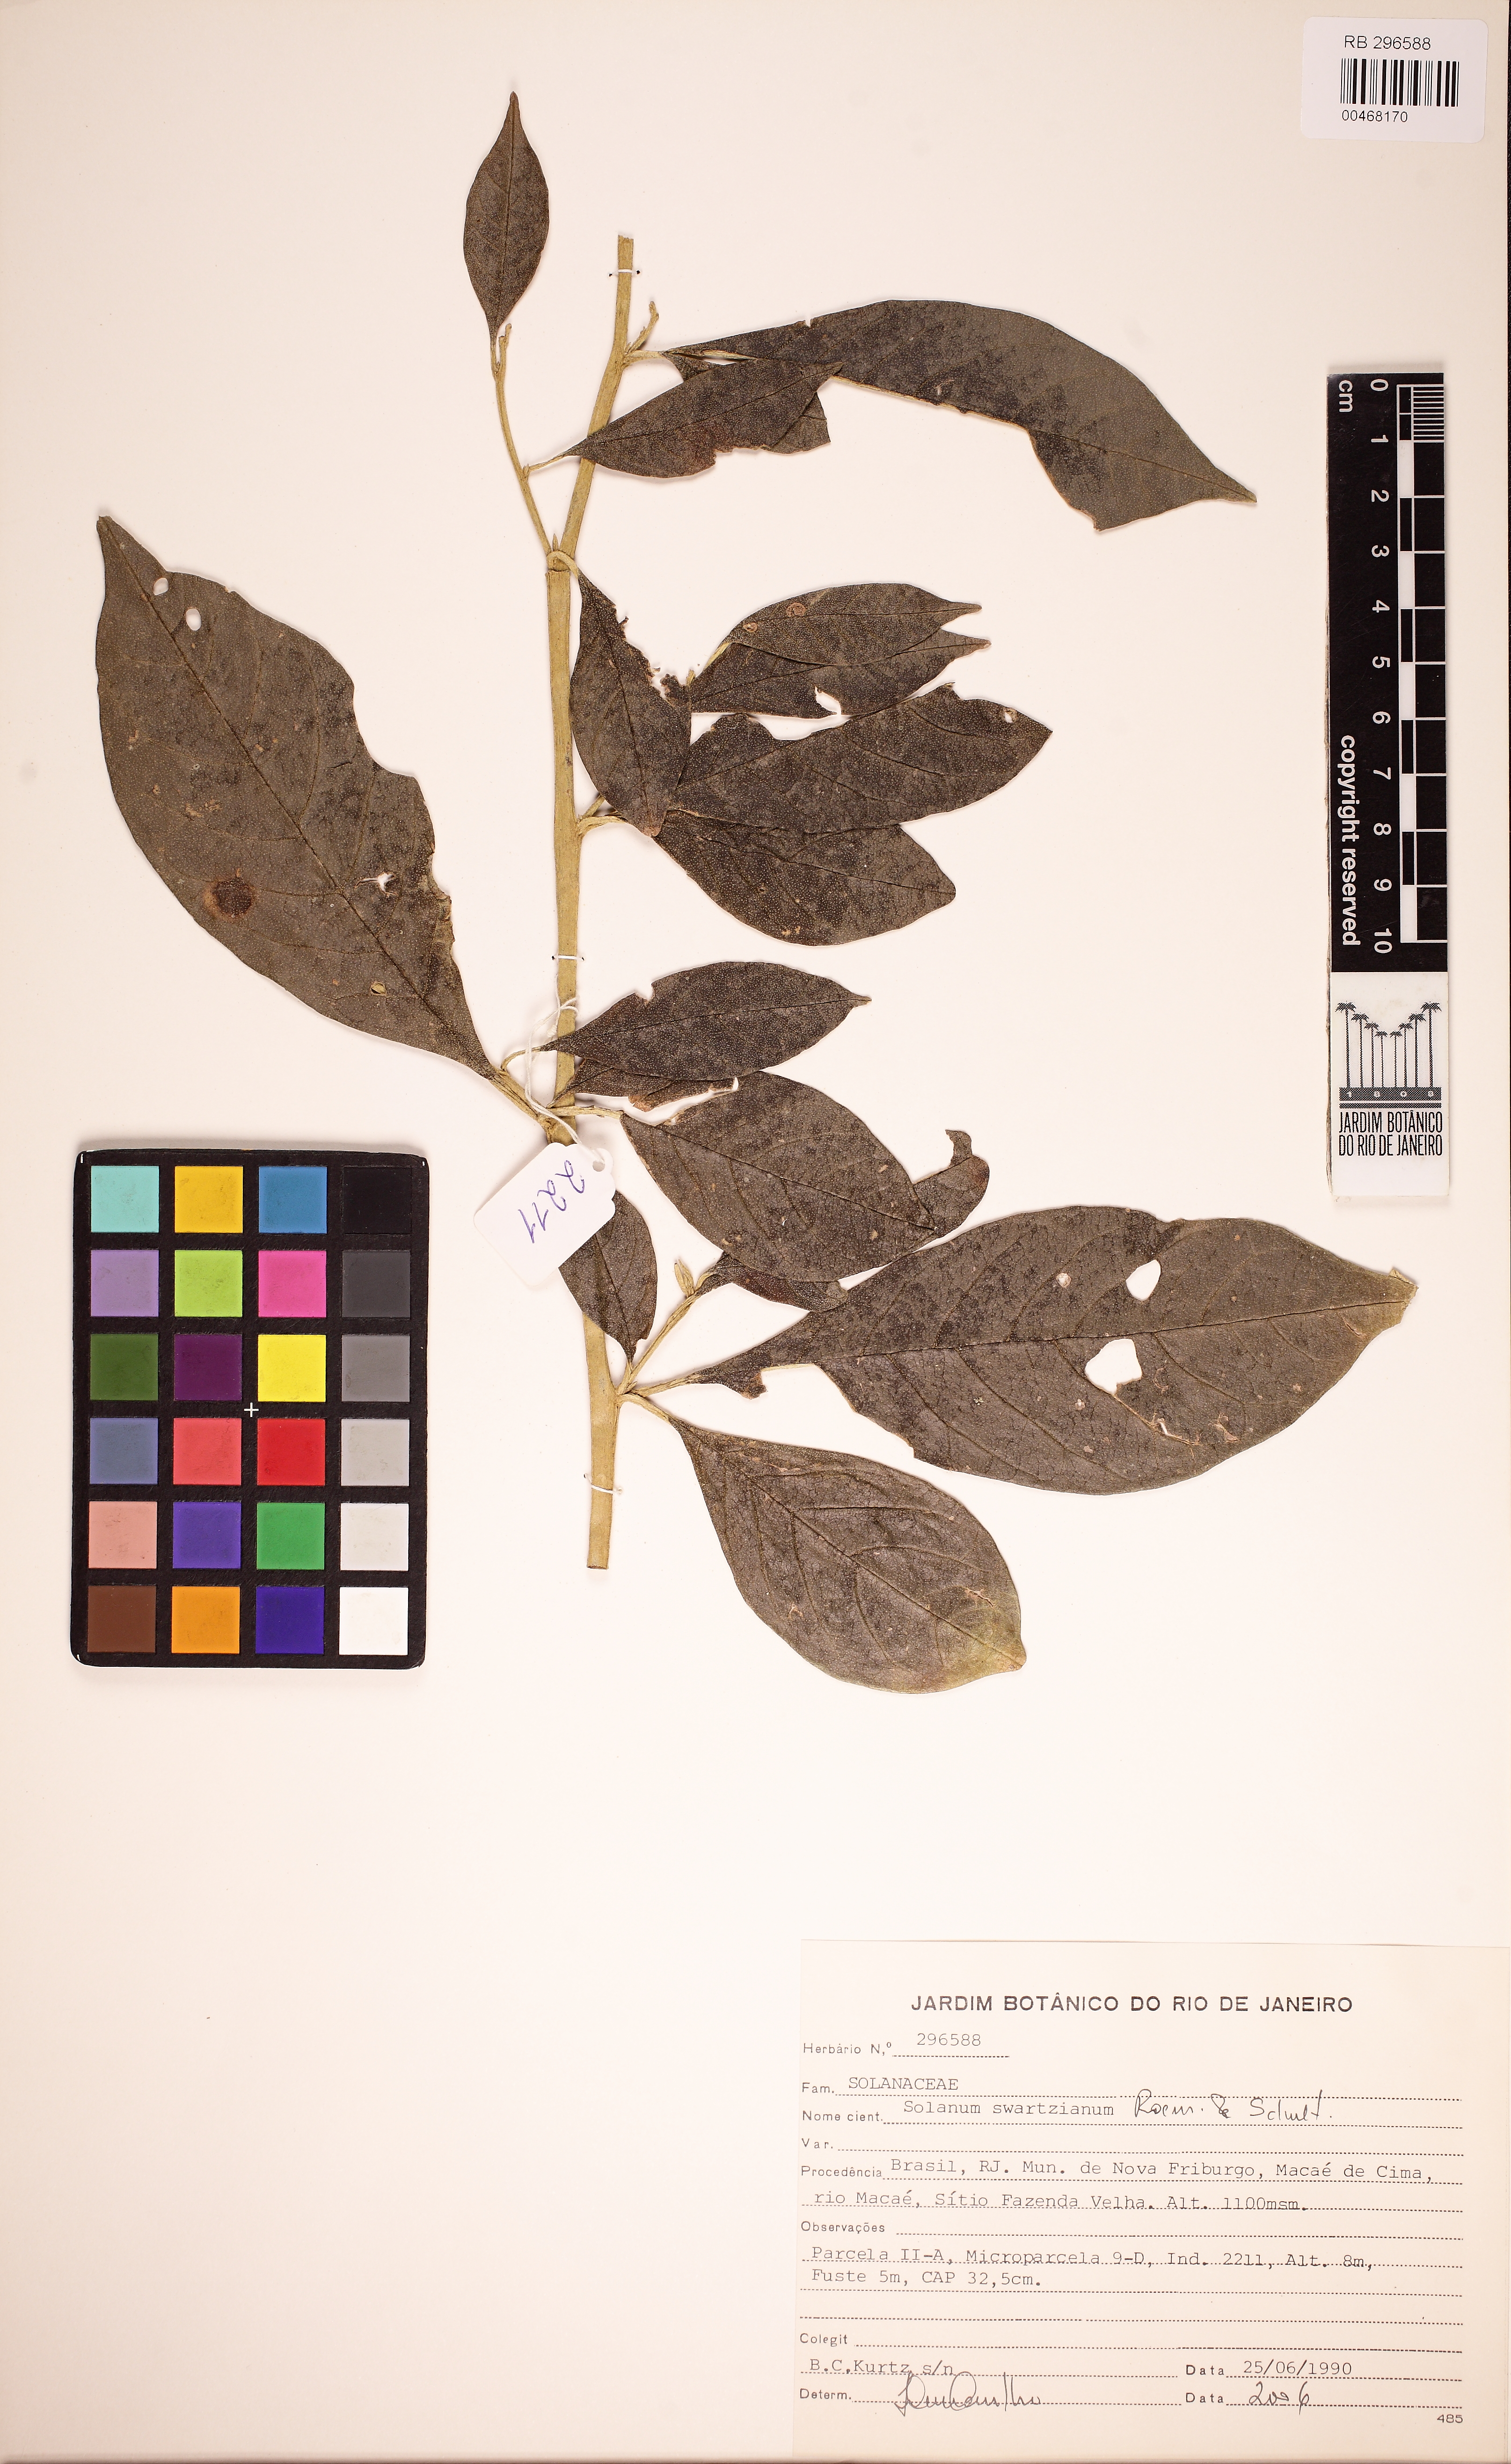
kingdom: Plantae
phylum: Tracheophyta
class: Magnoliopsida
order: Solanales
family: Solanaceae
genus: Solanum
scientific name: Solanum swartzianum
